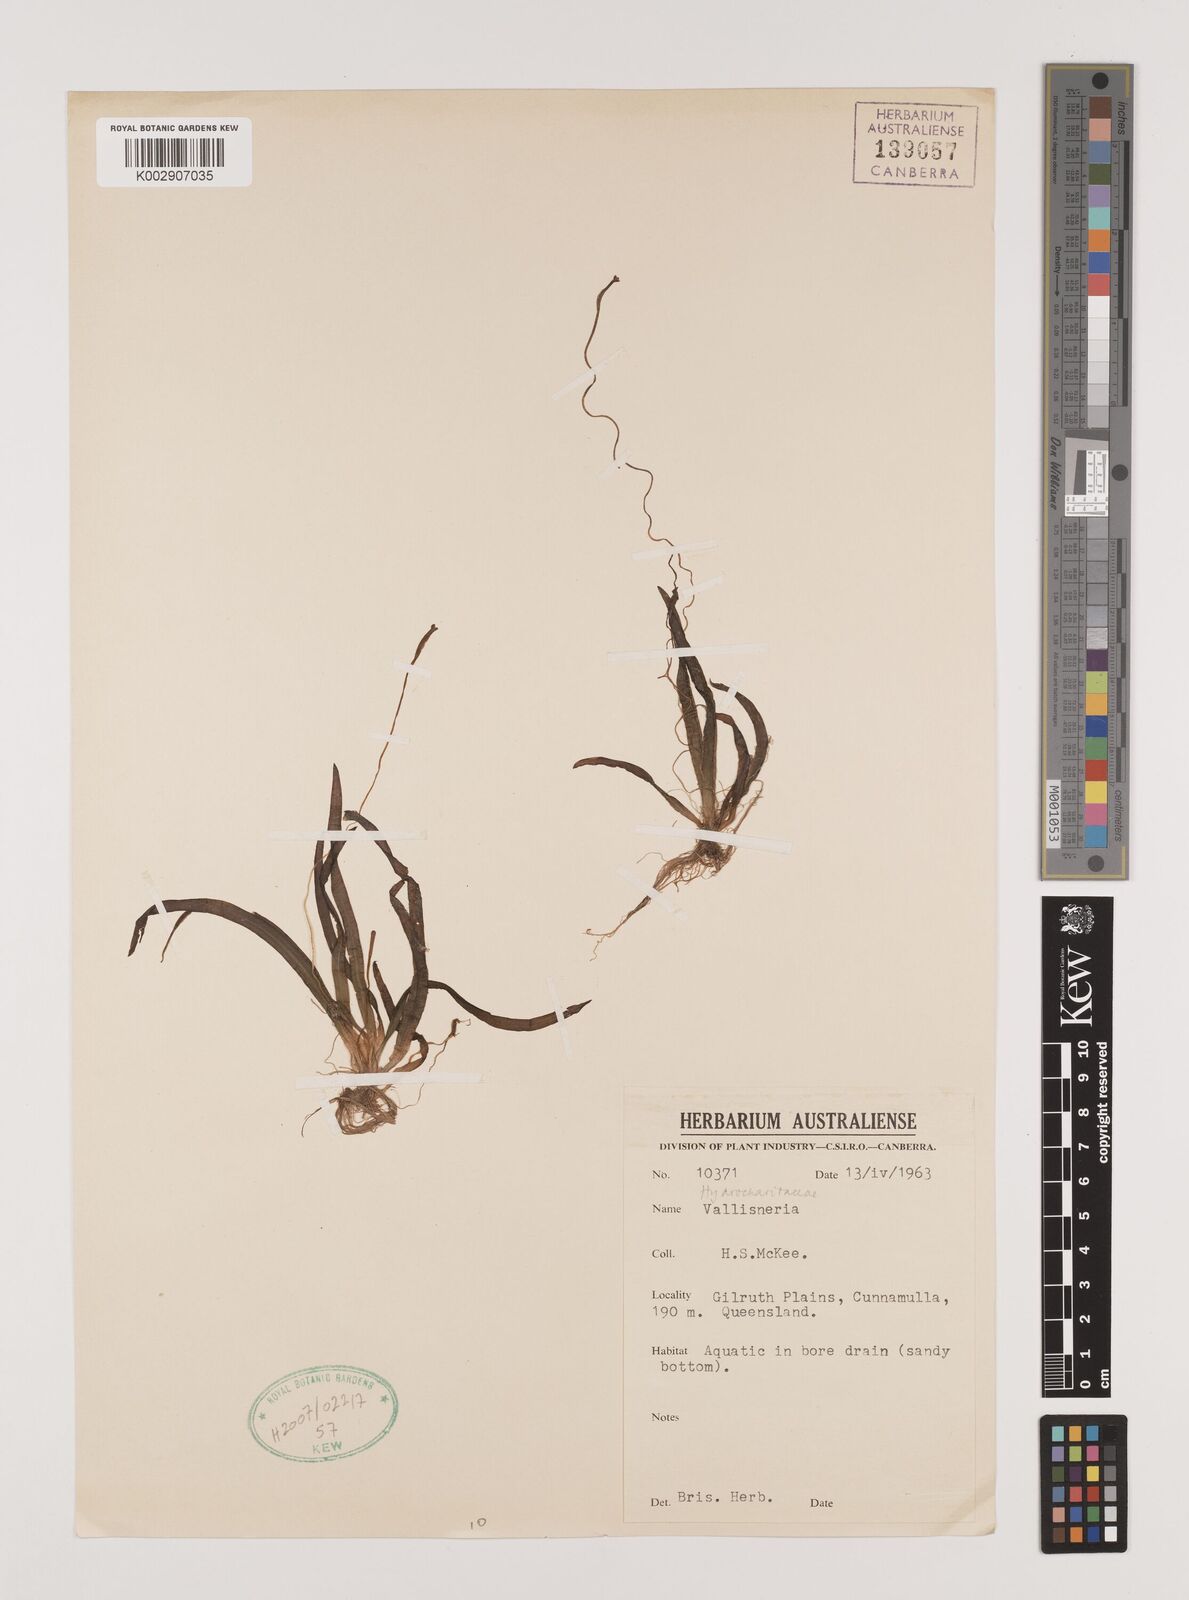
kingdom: Plantae
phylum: Tracheophyta
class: Liliopsida
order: Alismatales
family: Hydrocharitaceae
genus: Vallisneria
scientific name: Vallisneria
